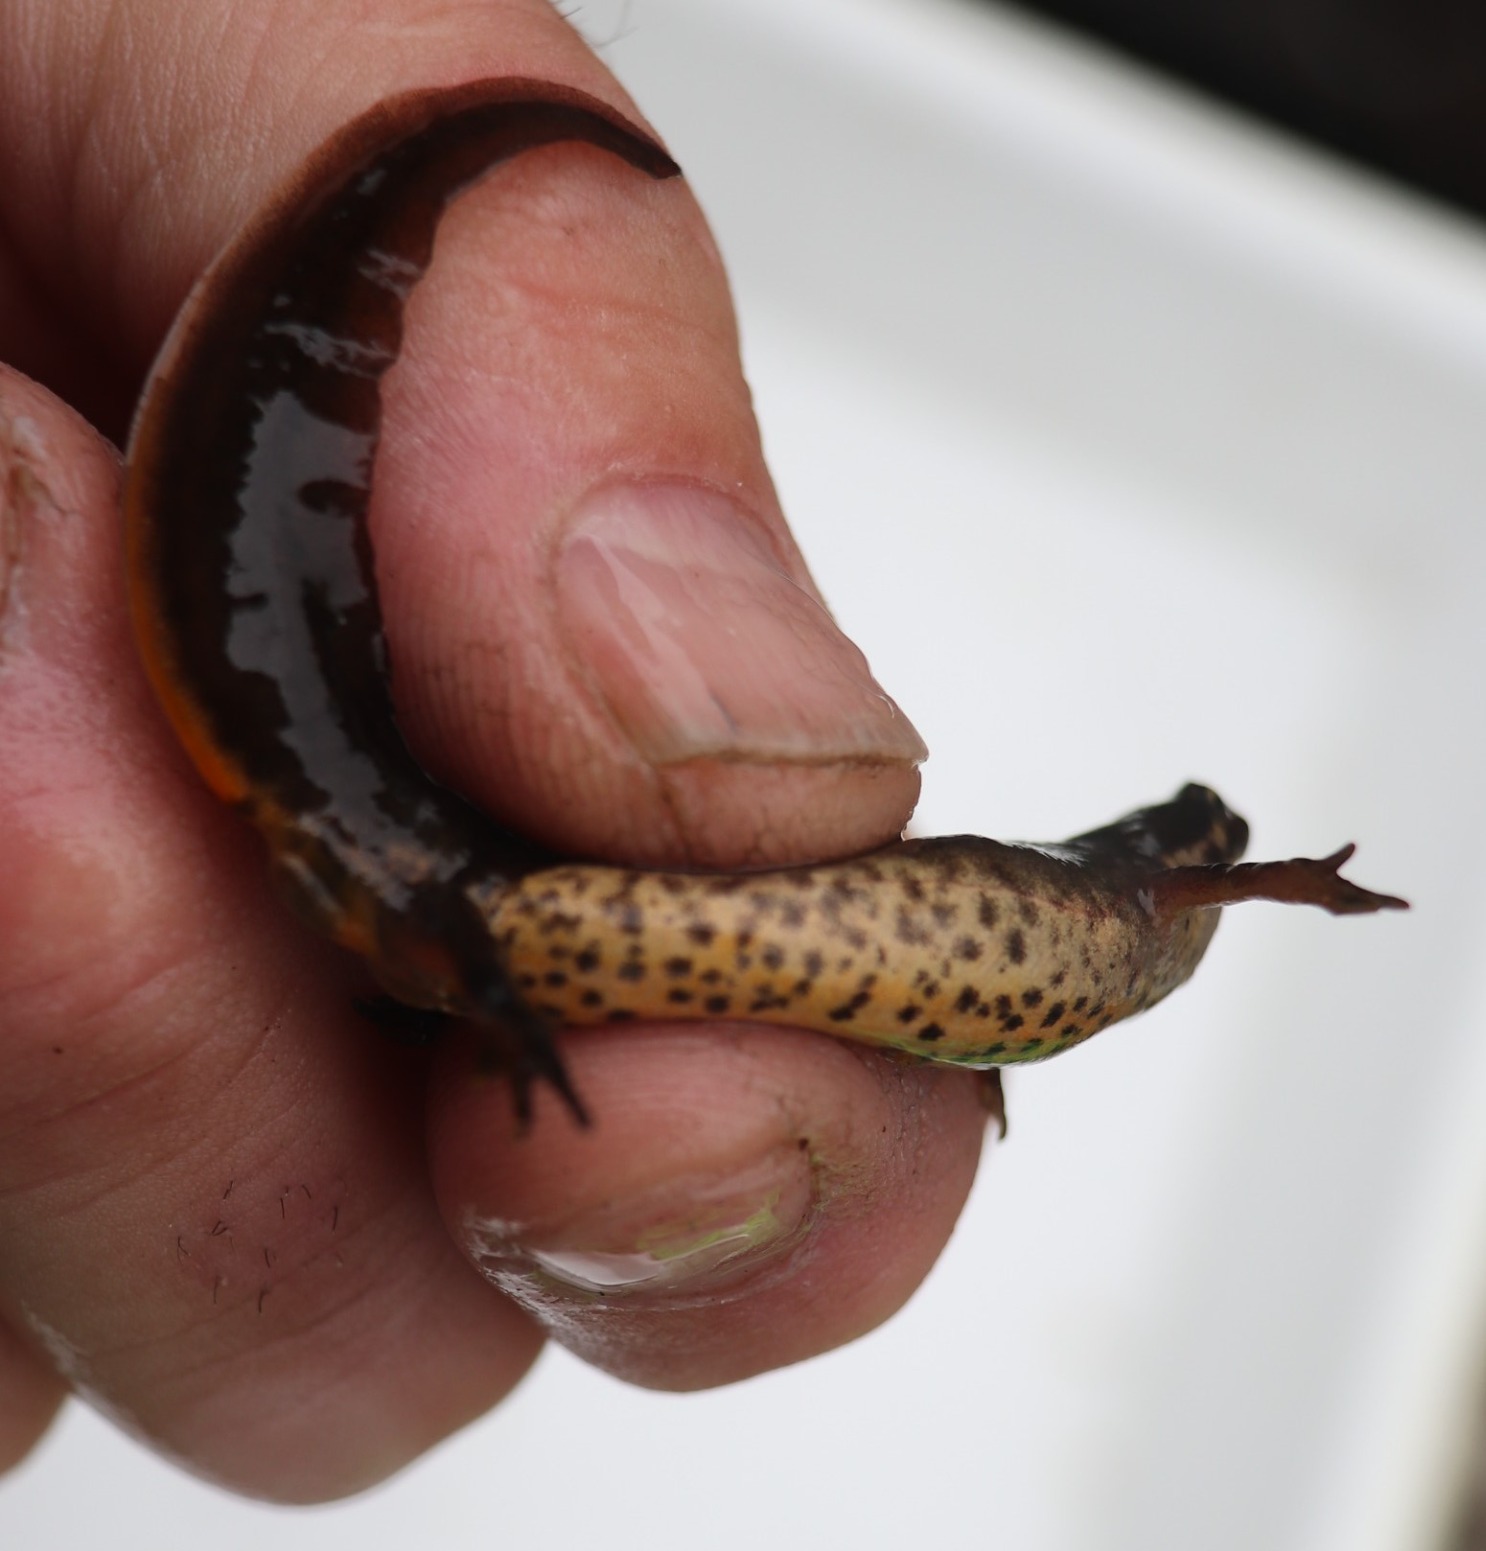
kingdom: Animalia
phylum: Chordata
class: Amphibia
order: Caudata
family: Salamandridae
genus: Lissotriton
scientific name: Lissotriton vulgaris
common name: Lille vandsalamander
